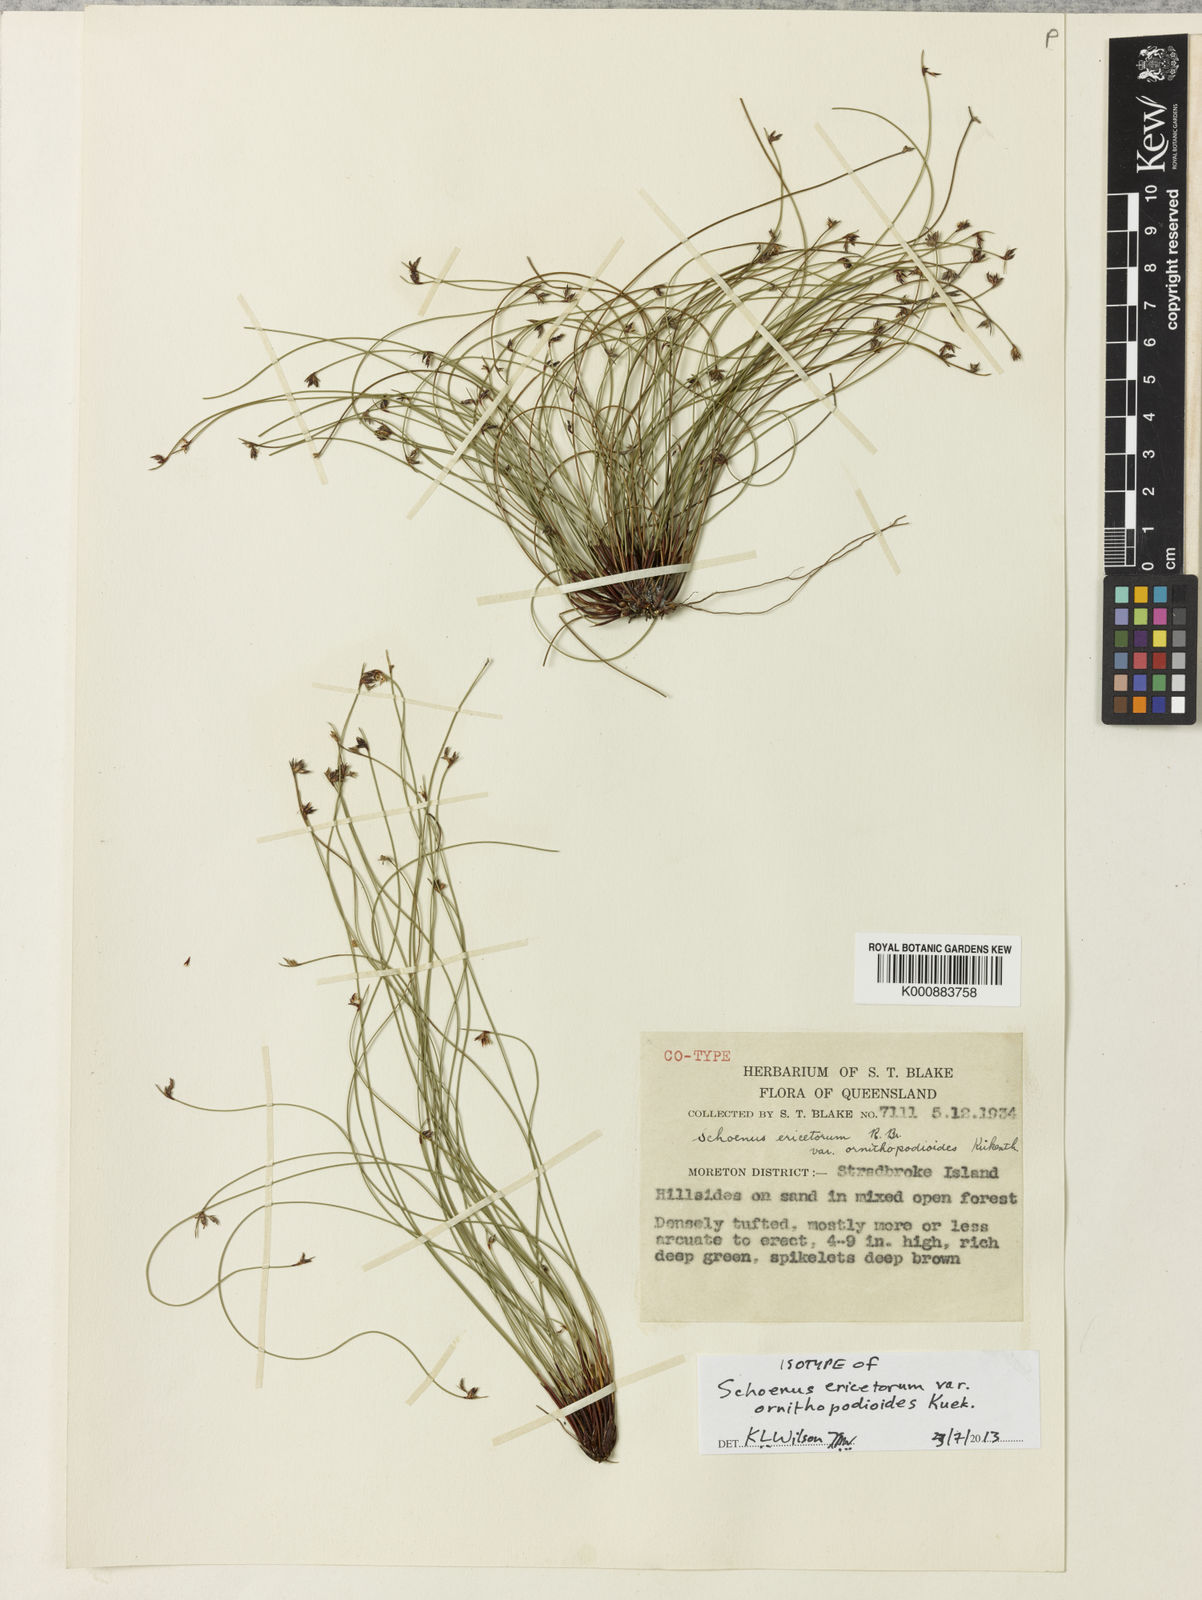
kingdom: Plantae
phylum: Tracheophyta
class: Liliopsida
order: Poales
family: Cyperaceae
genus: Schoenus
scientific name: Schoenus
